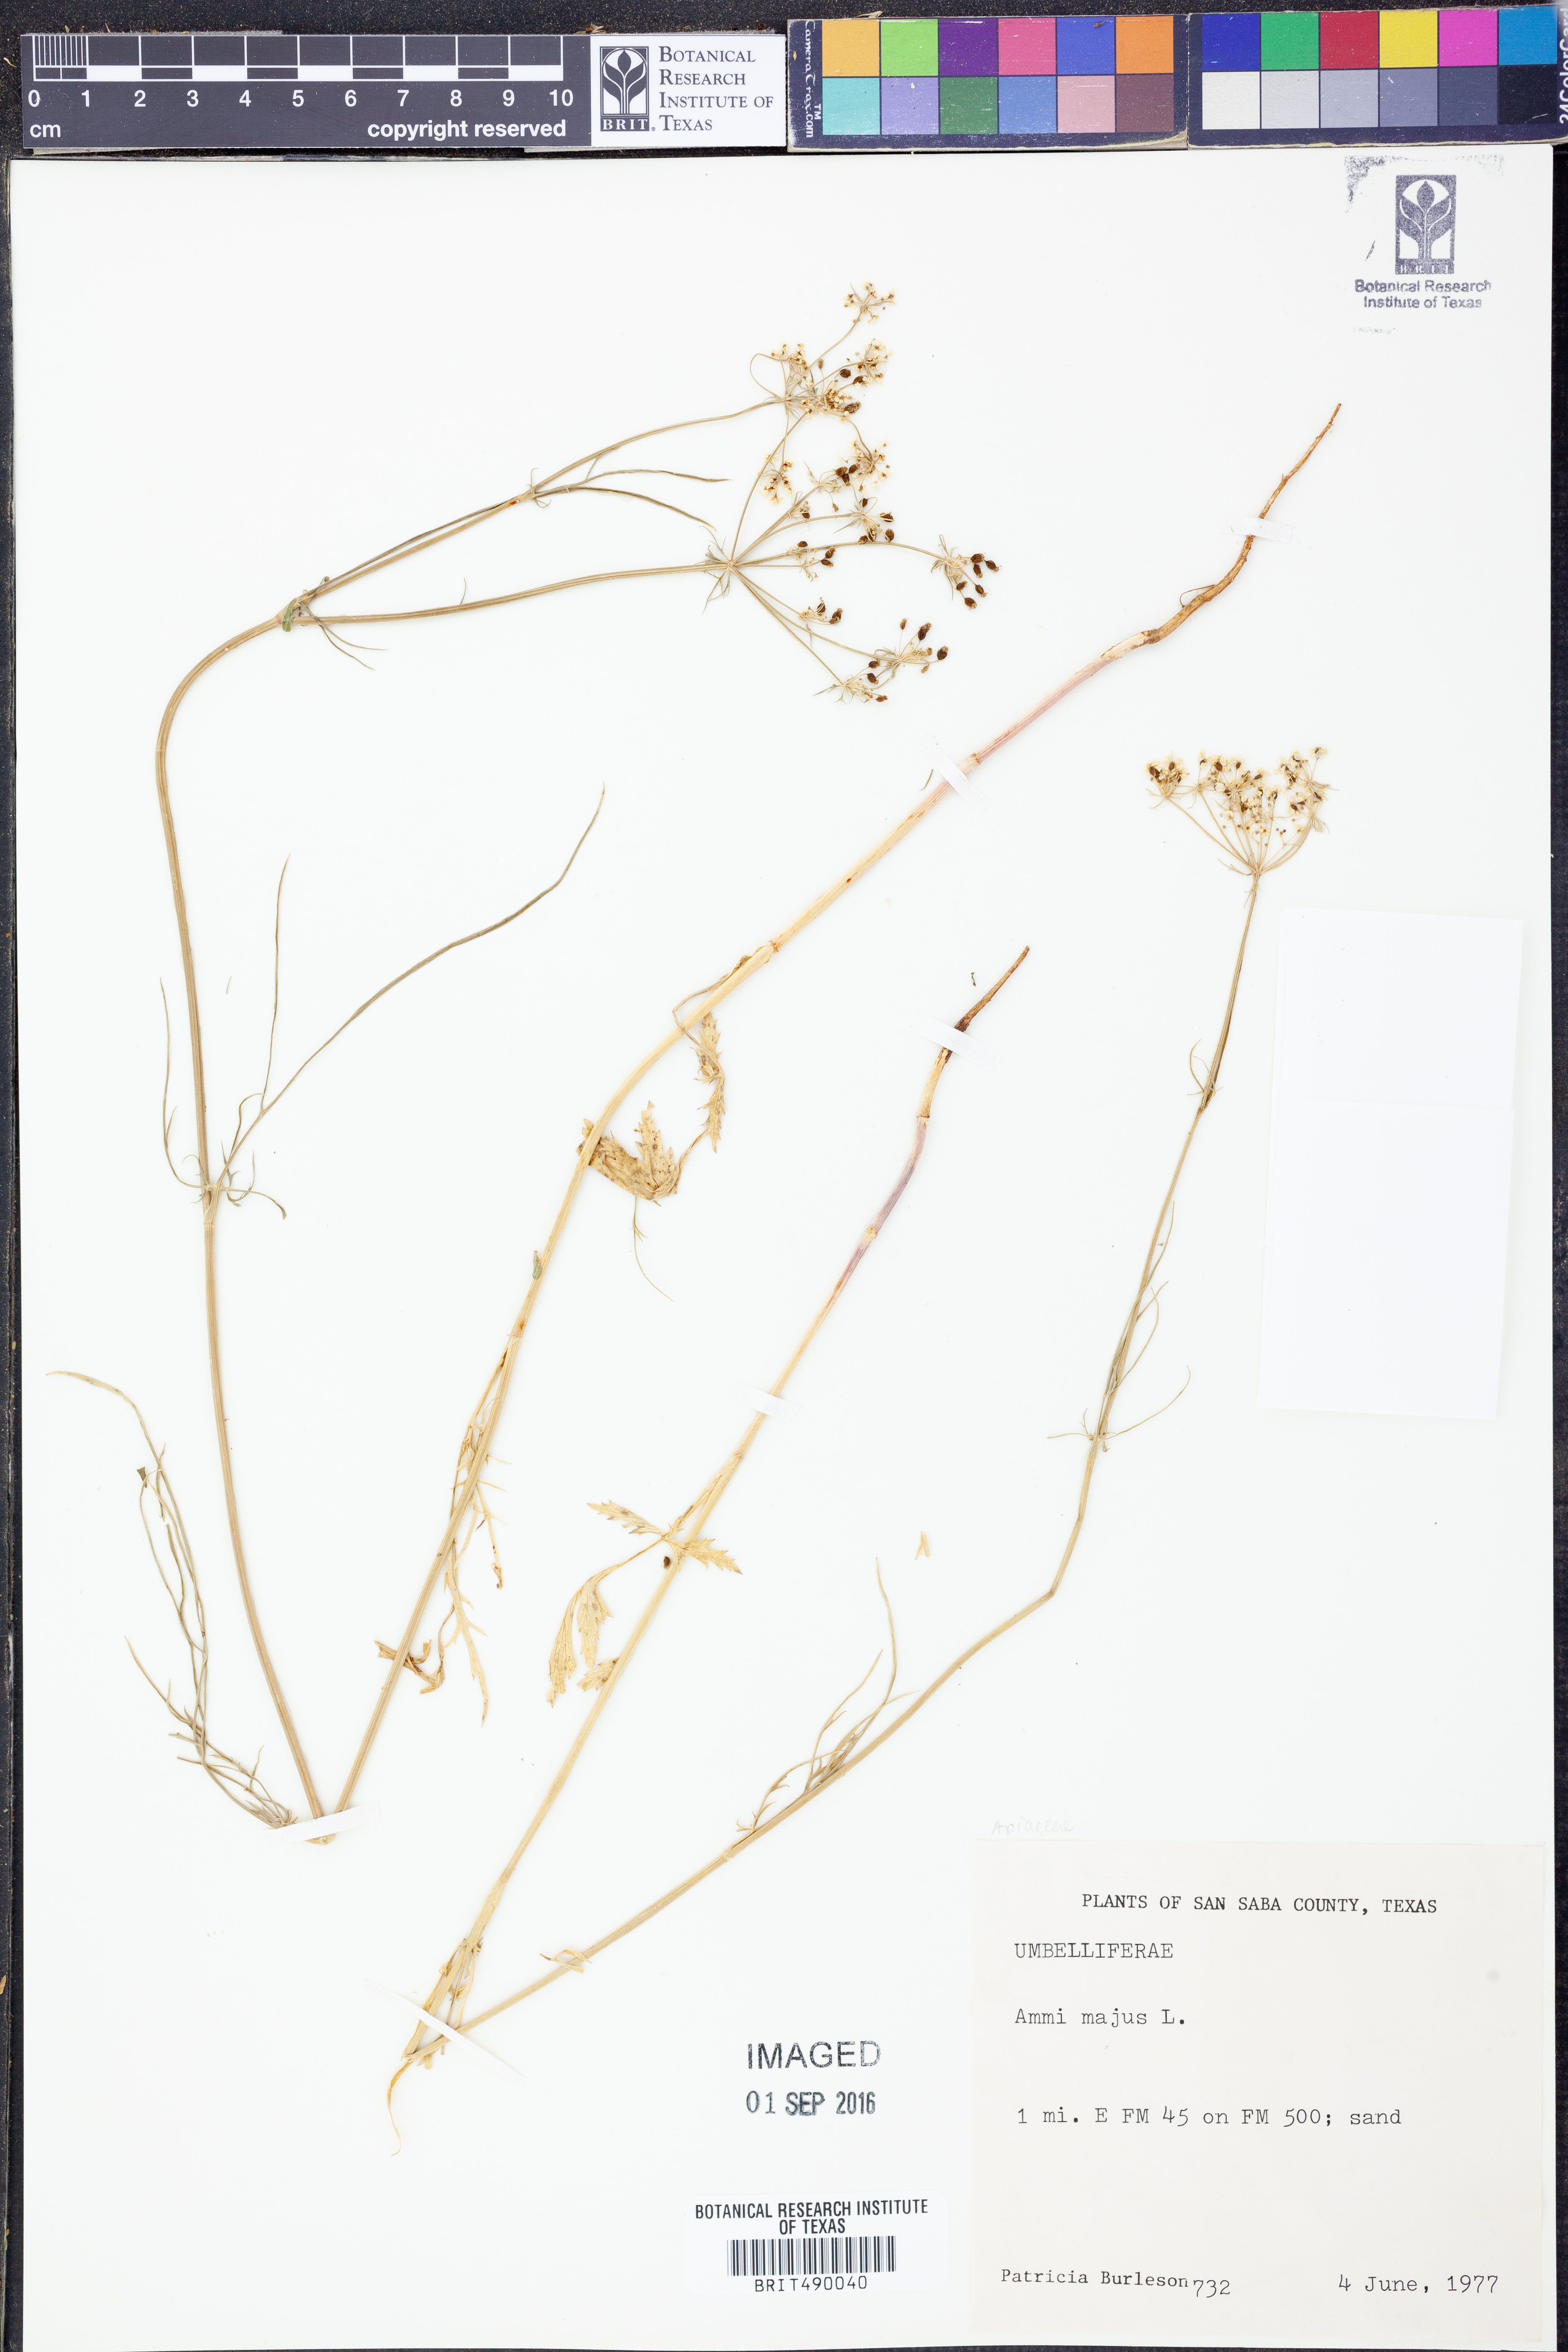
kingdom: Plantae
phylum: Tracheophyta
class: Magnoliopsida
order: Apiales
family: Apiaceae
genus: Ammi
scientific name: Ammi majus
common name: Bullwort
